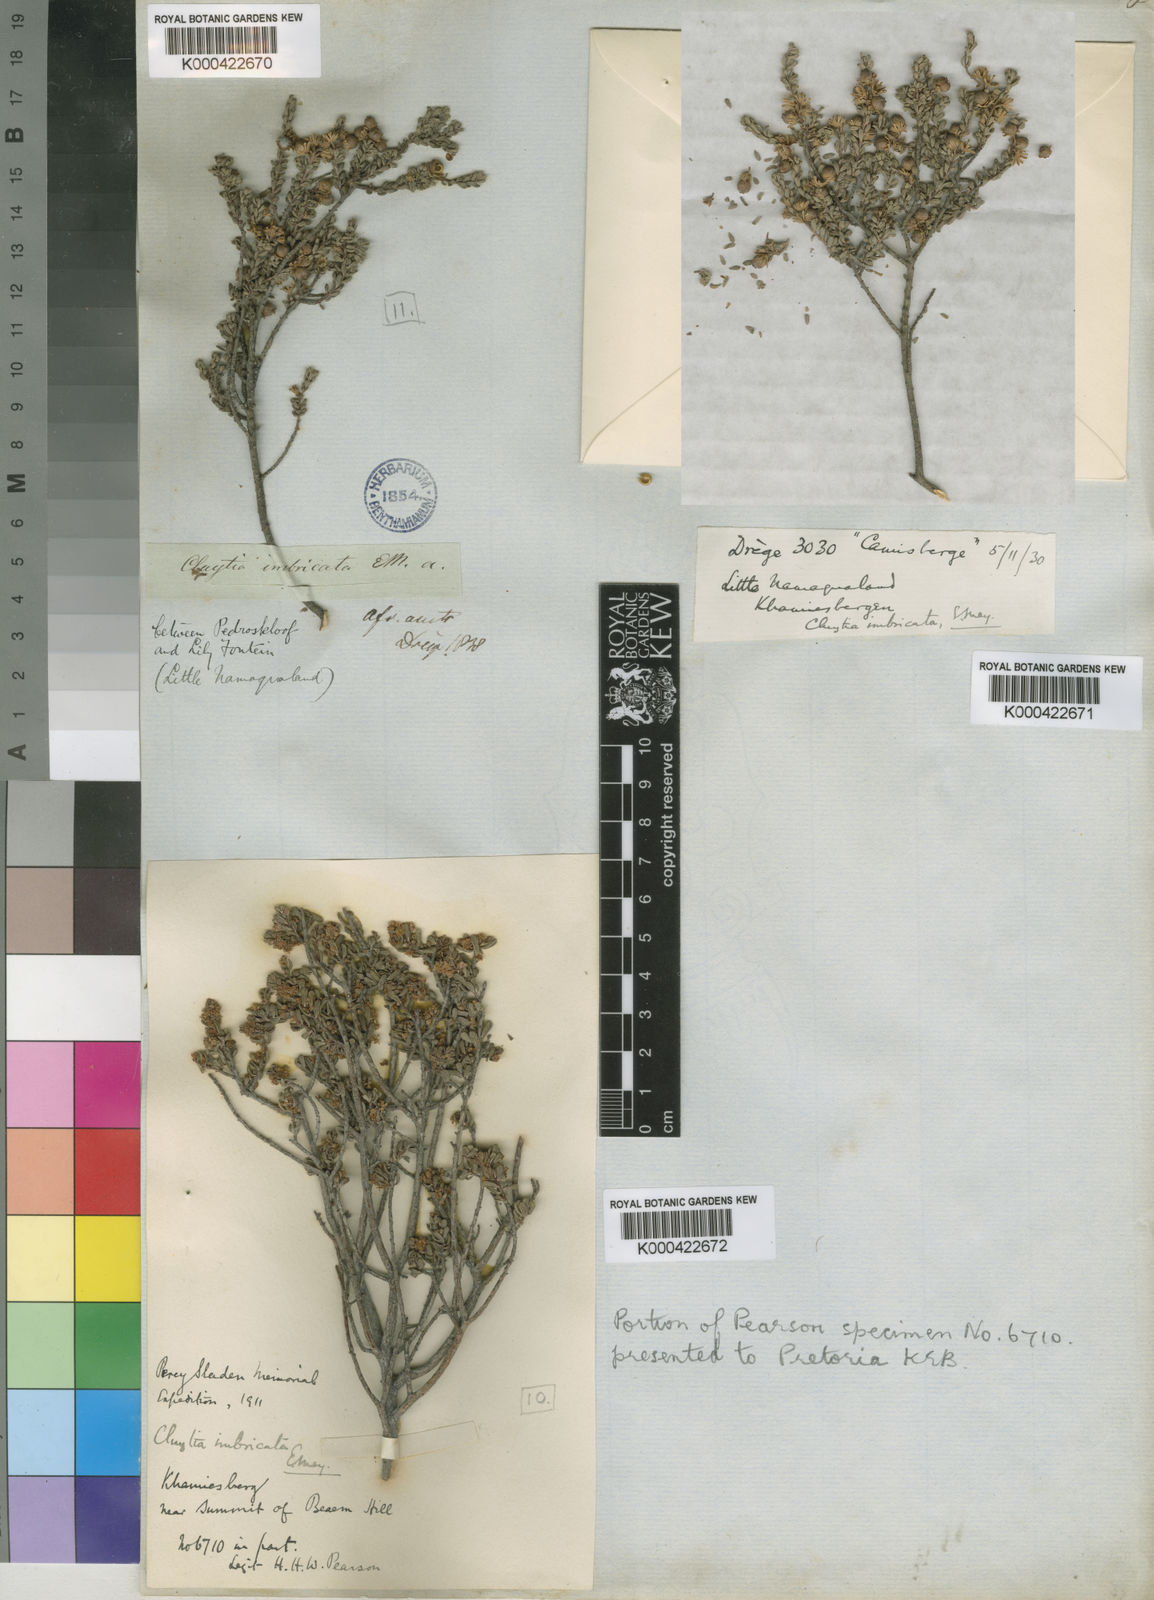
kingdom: Plantae
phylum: Tracheophyta
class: Magnoliopsida
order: Malpighiales
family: Peraceae
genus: Clutia
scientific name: Clutia imbricata
